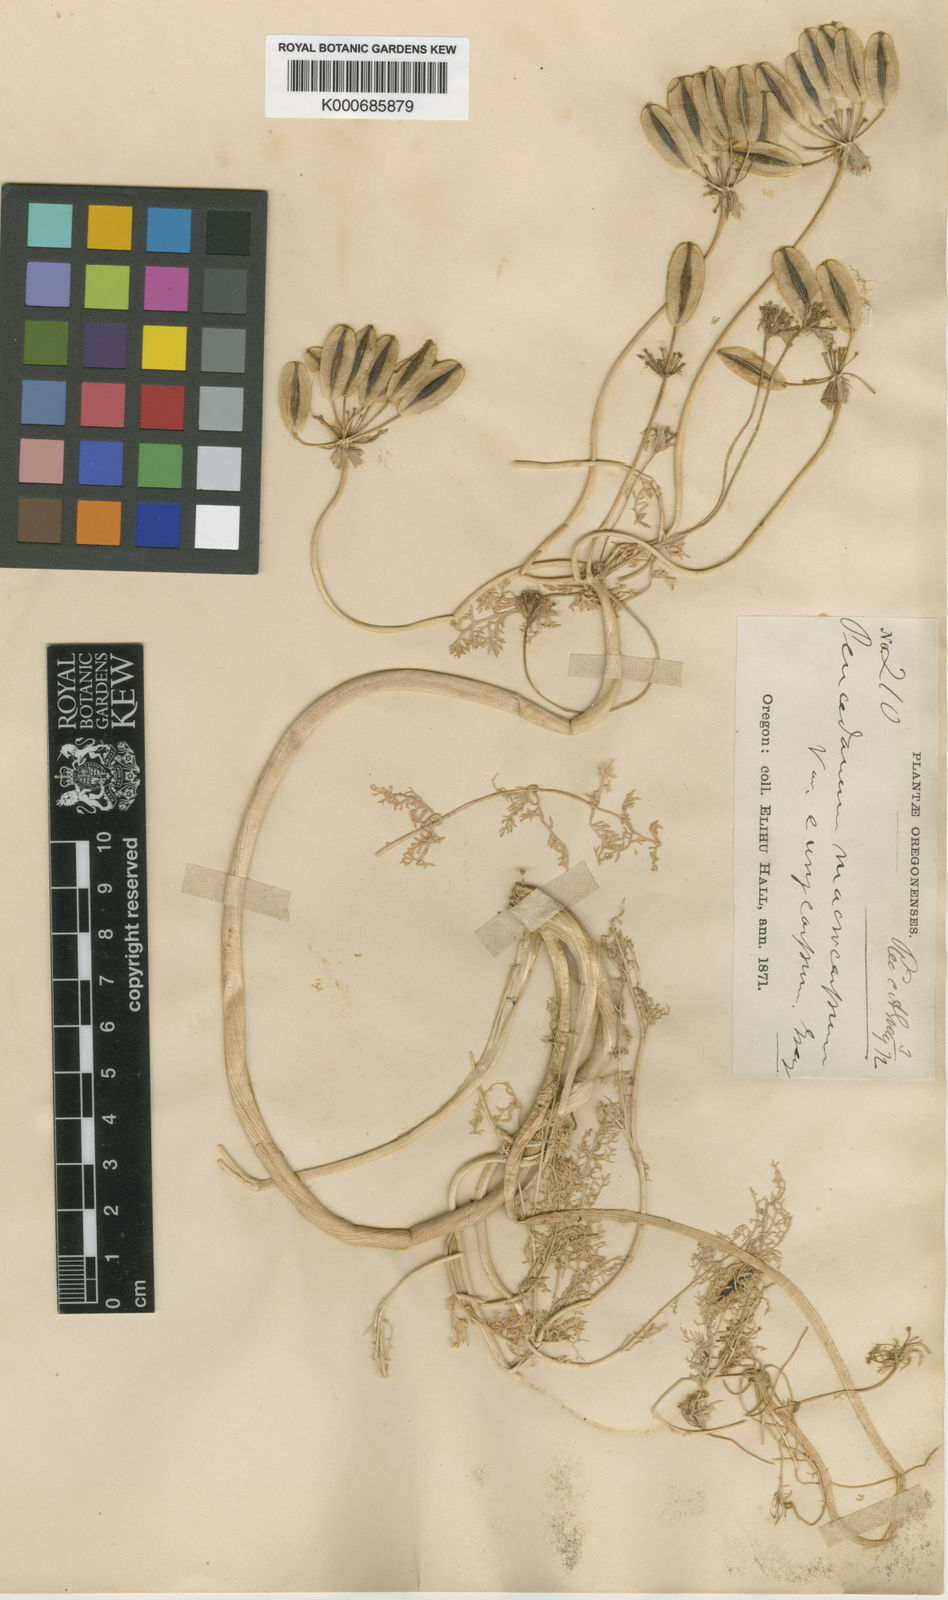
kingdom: Plantae
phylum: Tracheophyta
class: Magnoliopsida
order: Apiales
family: Apiaceae
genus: Lomatium
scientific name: Lomatium macrocarpum
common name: Big-seed biscuitroot
